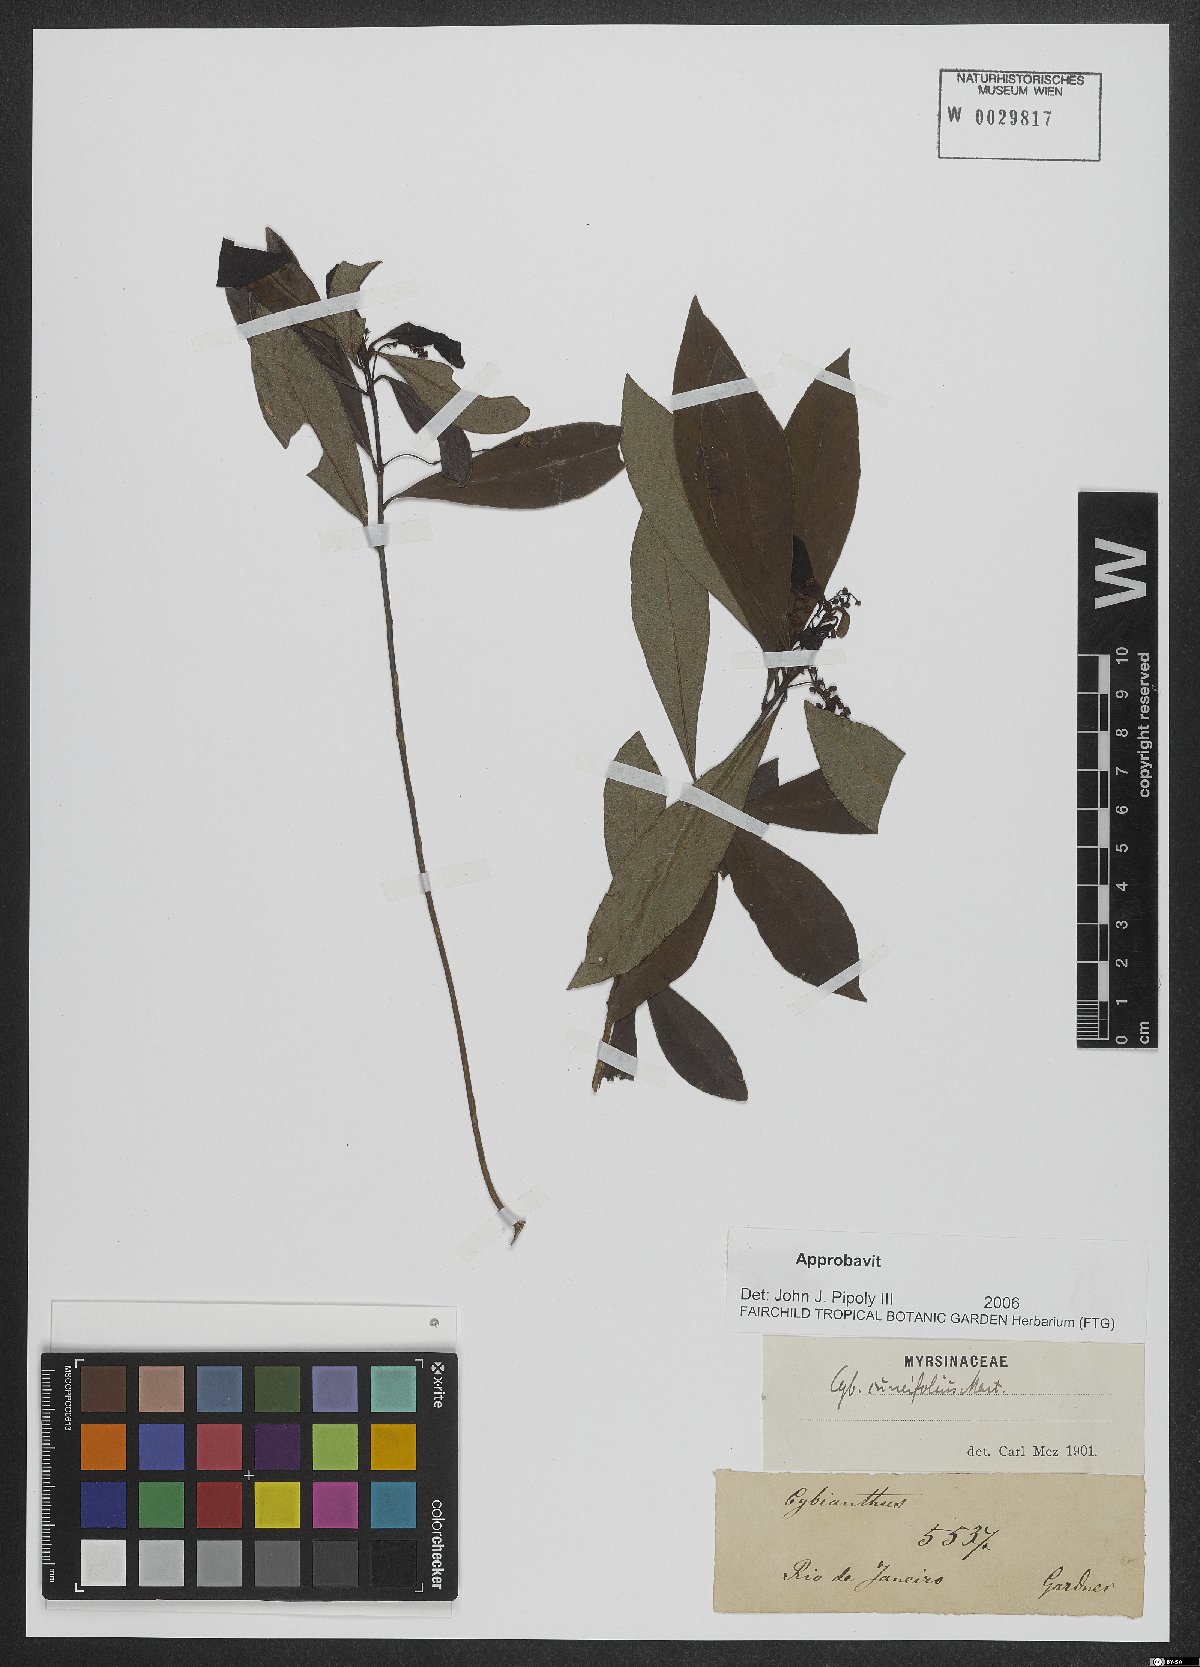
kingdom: Plantae
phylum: Tracheophyta
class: Magnoliopsida
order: Ericales
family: Primulaceae
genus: Cybianthus
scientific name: Cybianthus pastensis
